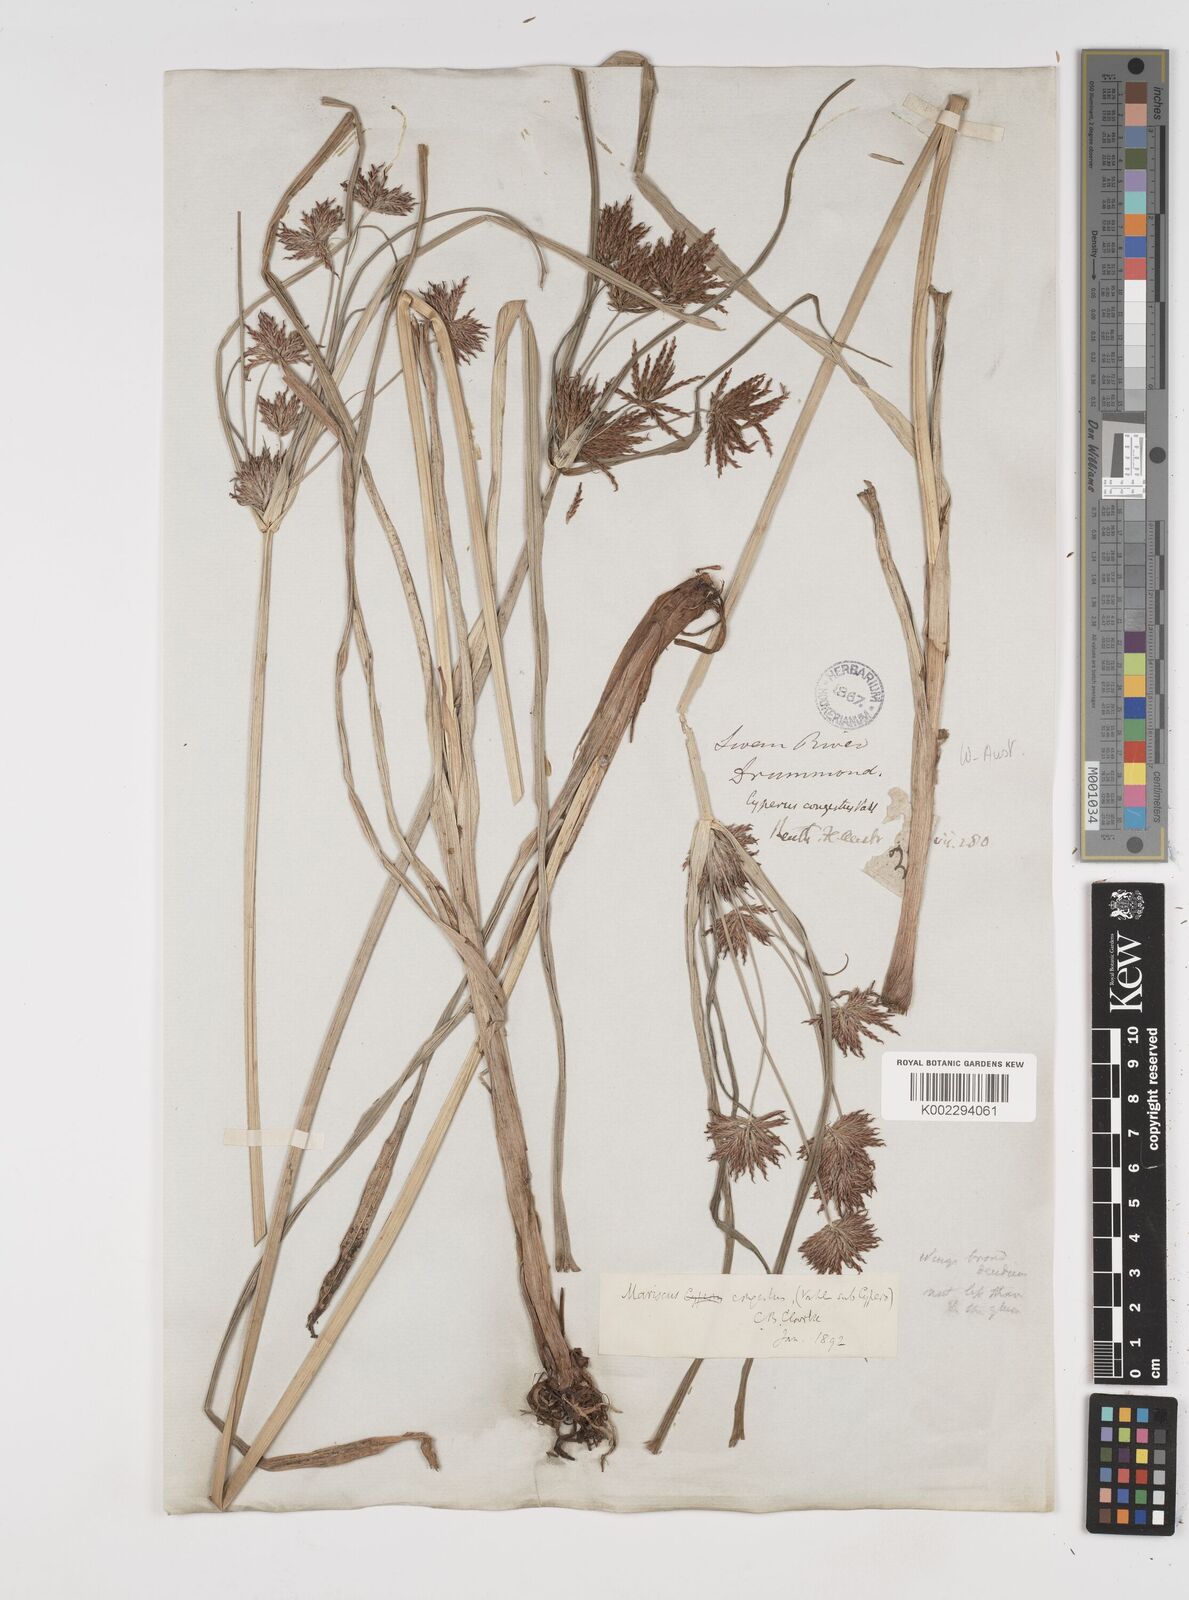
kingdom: Plantae
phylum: Tracheophyta
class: Liliopsida
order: Poales
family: Cyperaceae
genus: Cyperus
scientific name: Cyperus congestus
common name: Dense flat sedge
